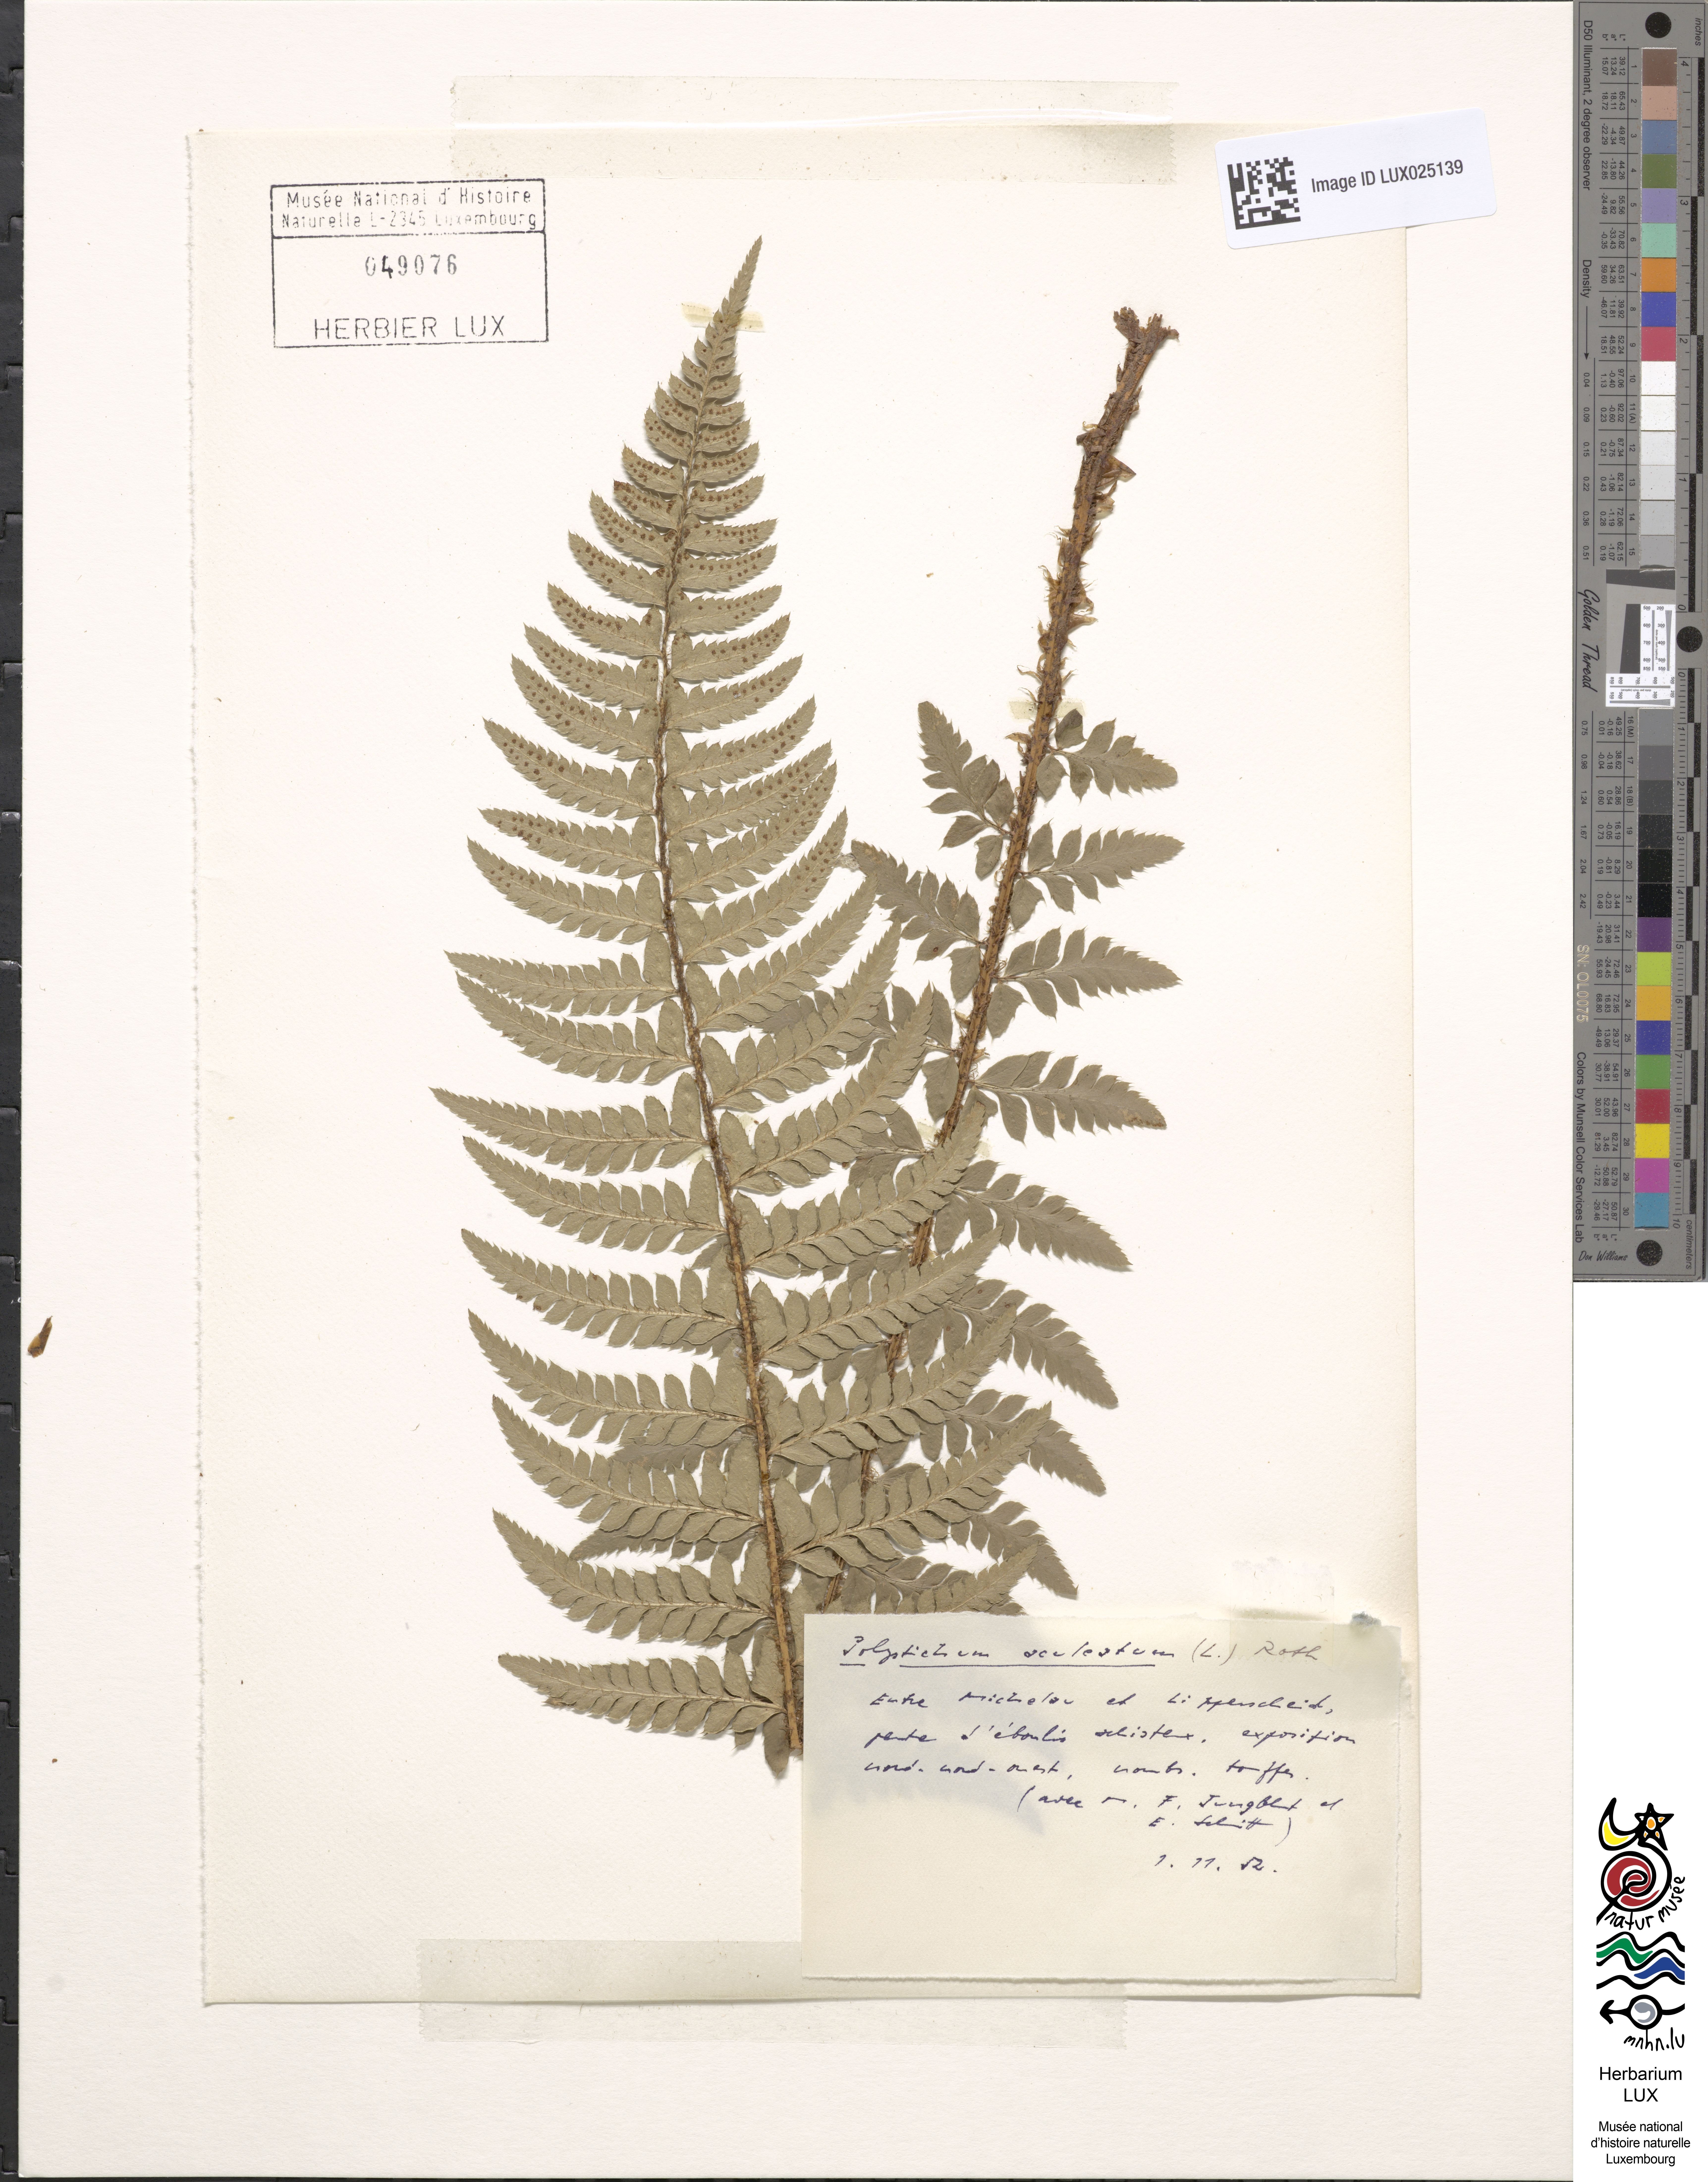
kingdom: Plantae
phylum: Tracheophyta
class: Polypodiopsida
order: Polypodiales
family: Dryopteridaceae
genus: Polystichum
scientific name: Polystichum aculeatum
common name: Hard shield-fern
